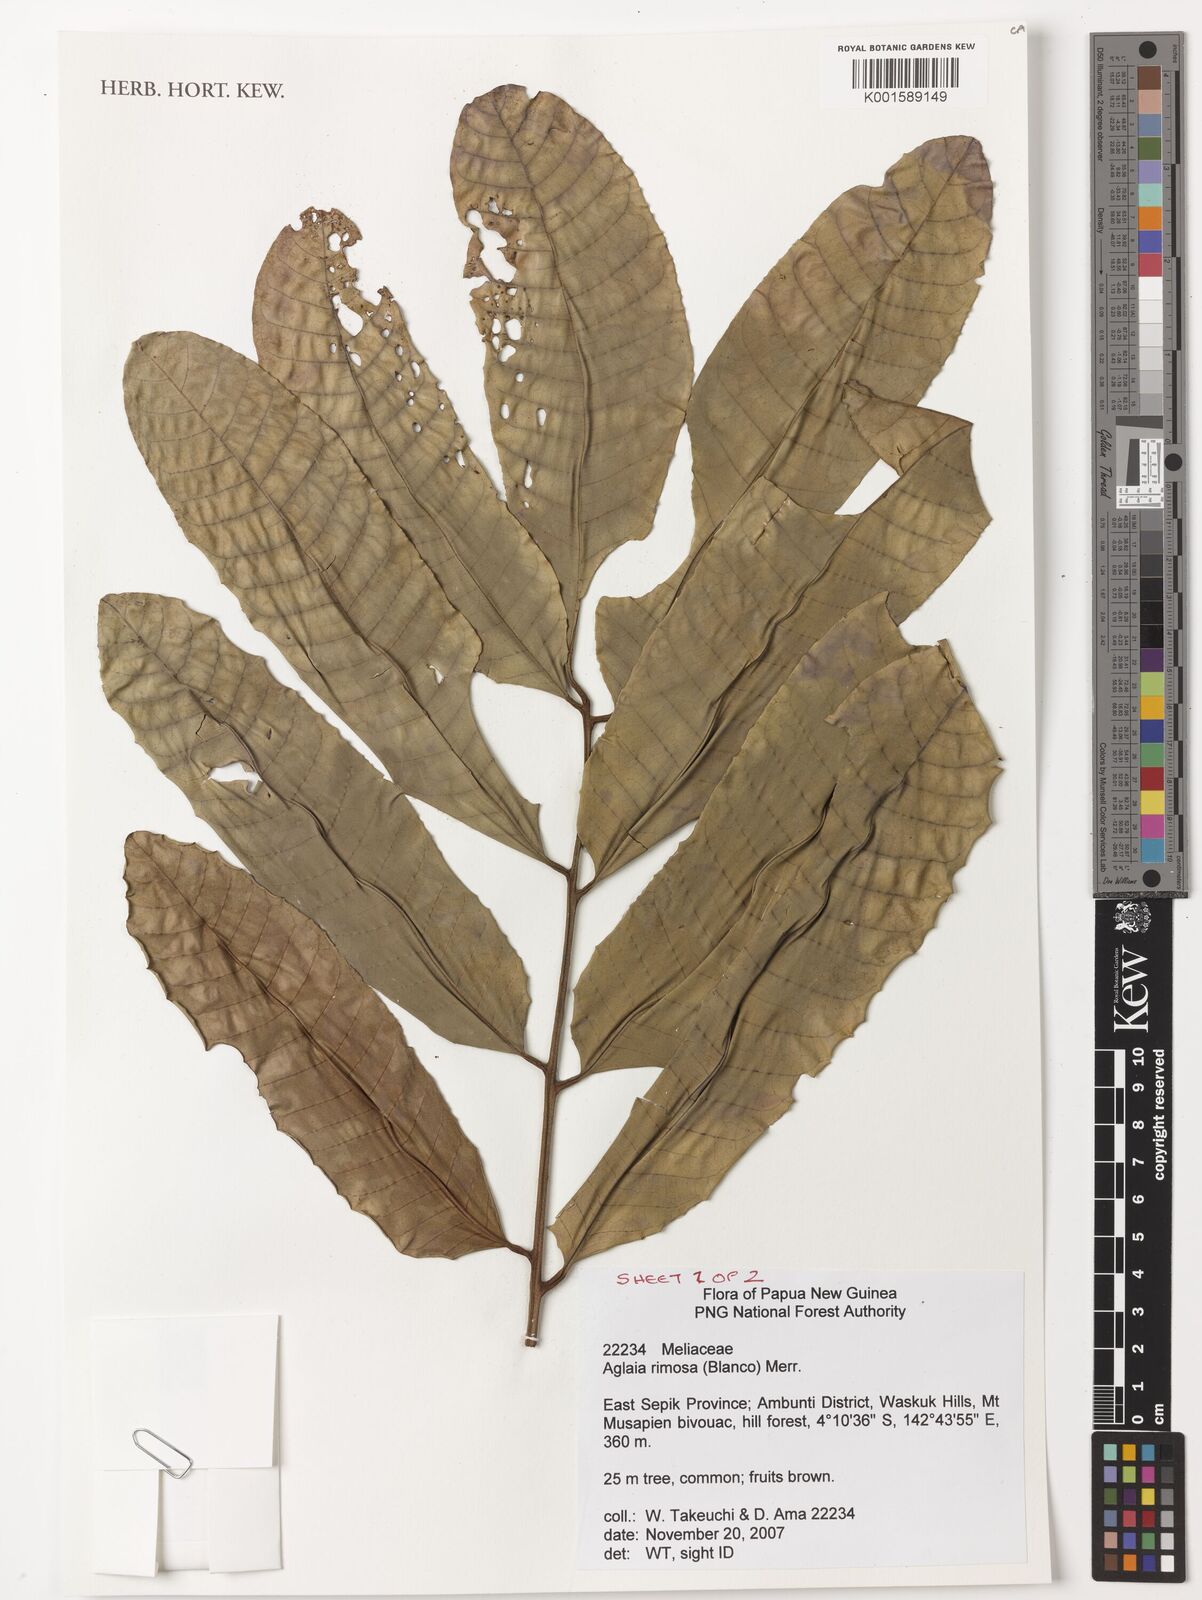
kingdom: Plantae
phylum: Tracheophyta
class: Magnoliopsida
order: Sapindales
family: Meliaceae
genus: Aglaia
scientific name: Aglaia rimosa
